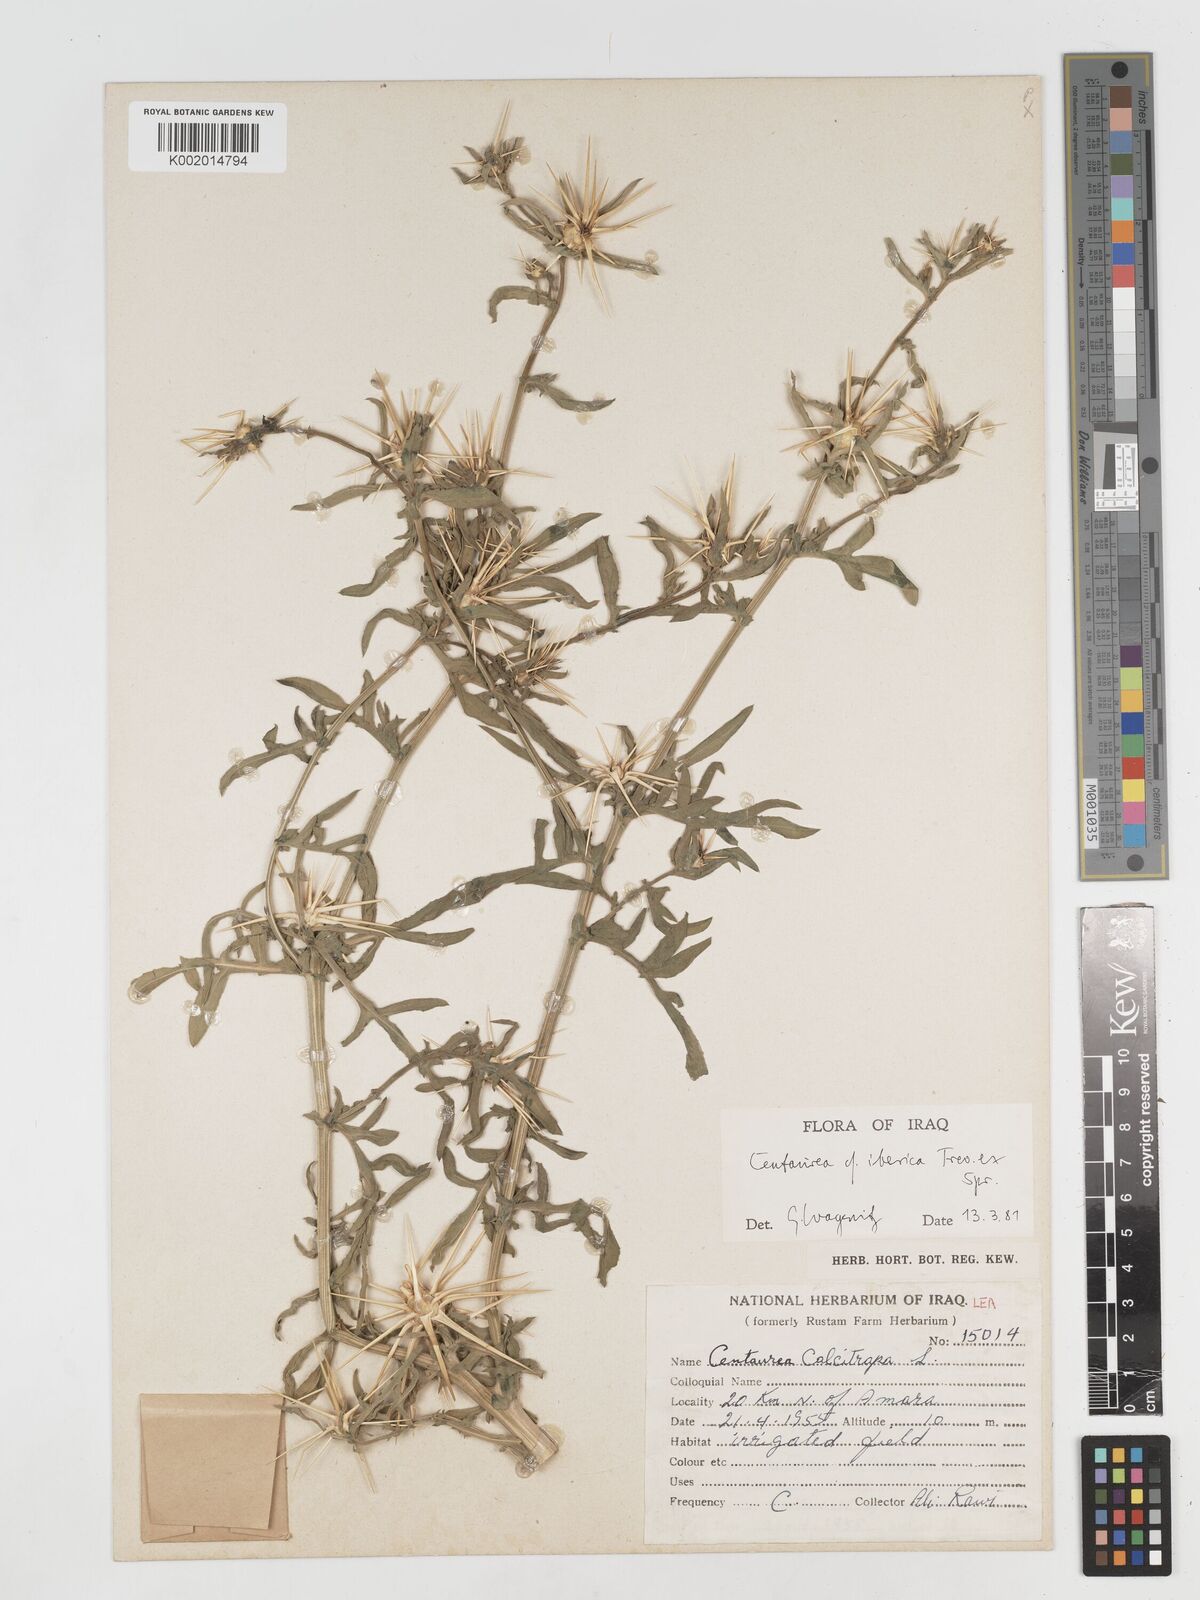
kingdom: Plantae
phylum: Tracheophyta
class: Magnoliopsida
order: Asterales
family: Asteraceae
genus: Centaurea
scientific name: Centaurea iberica
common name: Iberian knapweed
